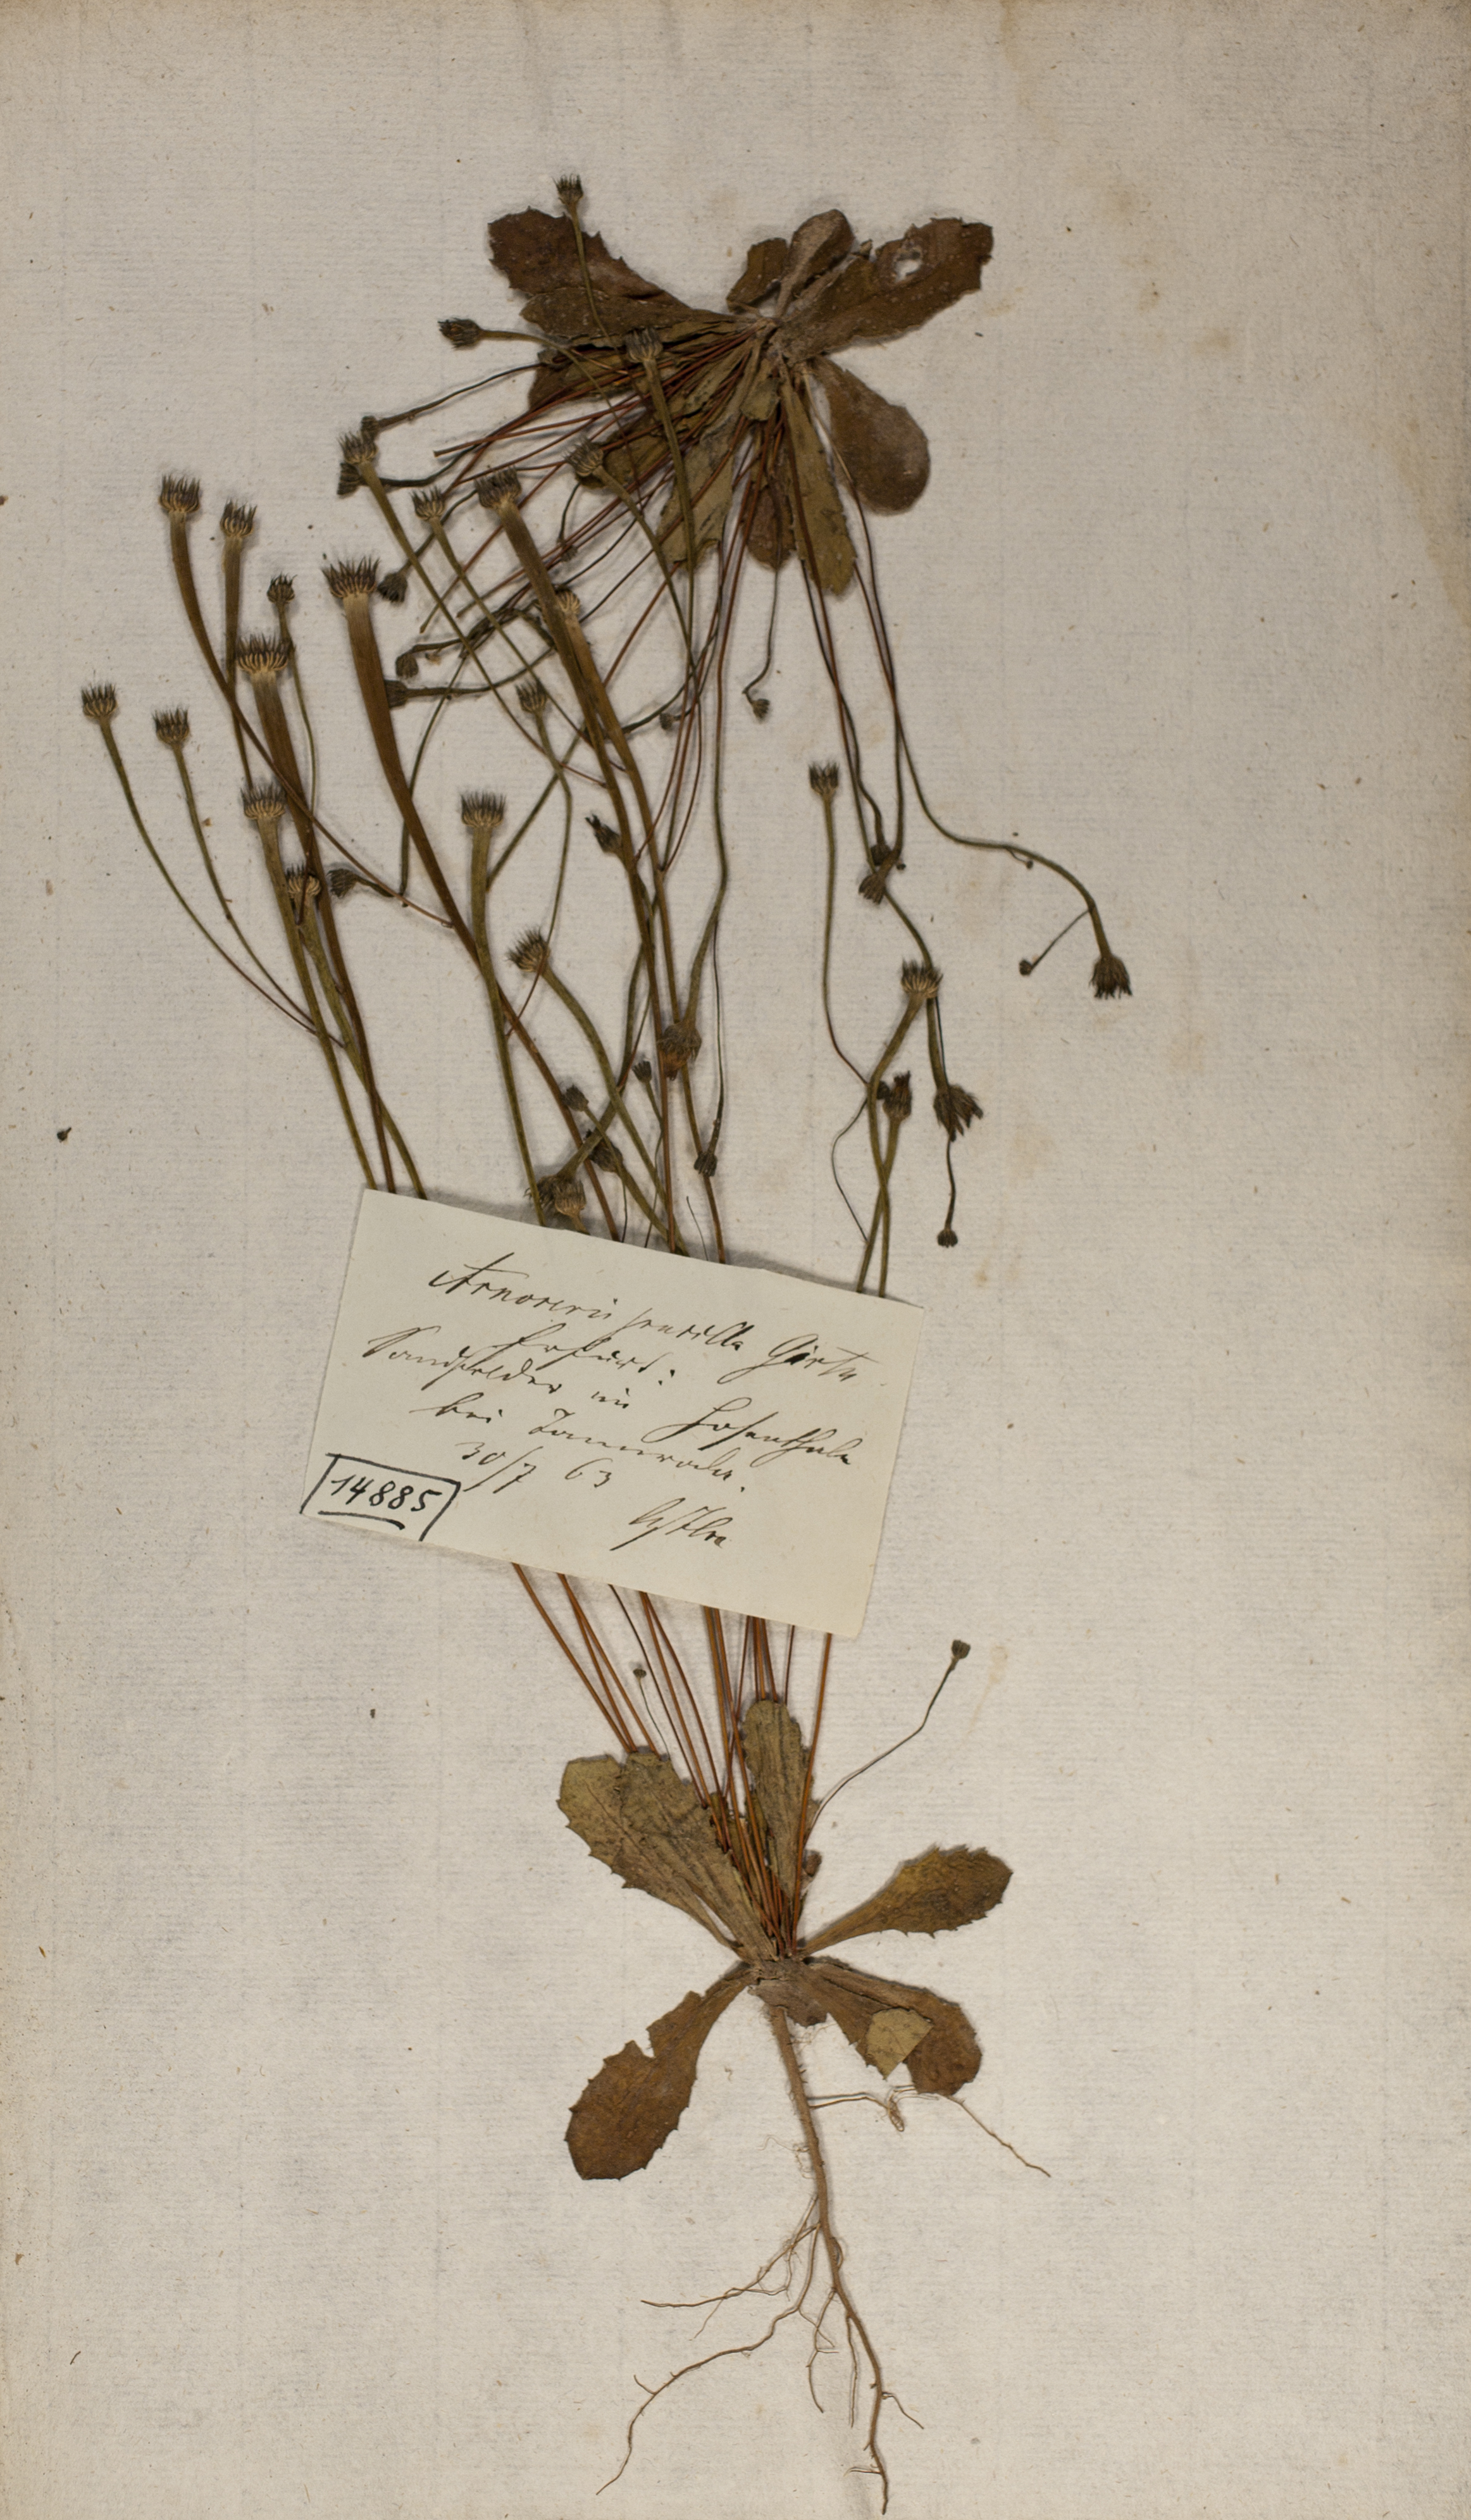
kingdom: Plantae
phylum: Tracheophyta
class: Magnoliopsida
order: Asterales
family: Asteraceae
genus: Arnoseris
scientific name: Arnoseris minima
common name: Lamb's succory
